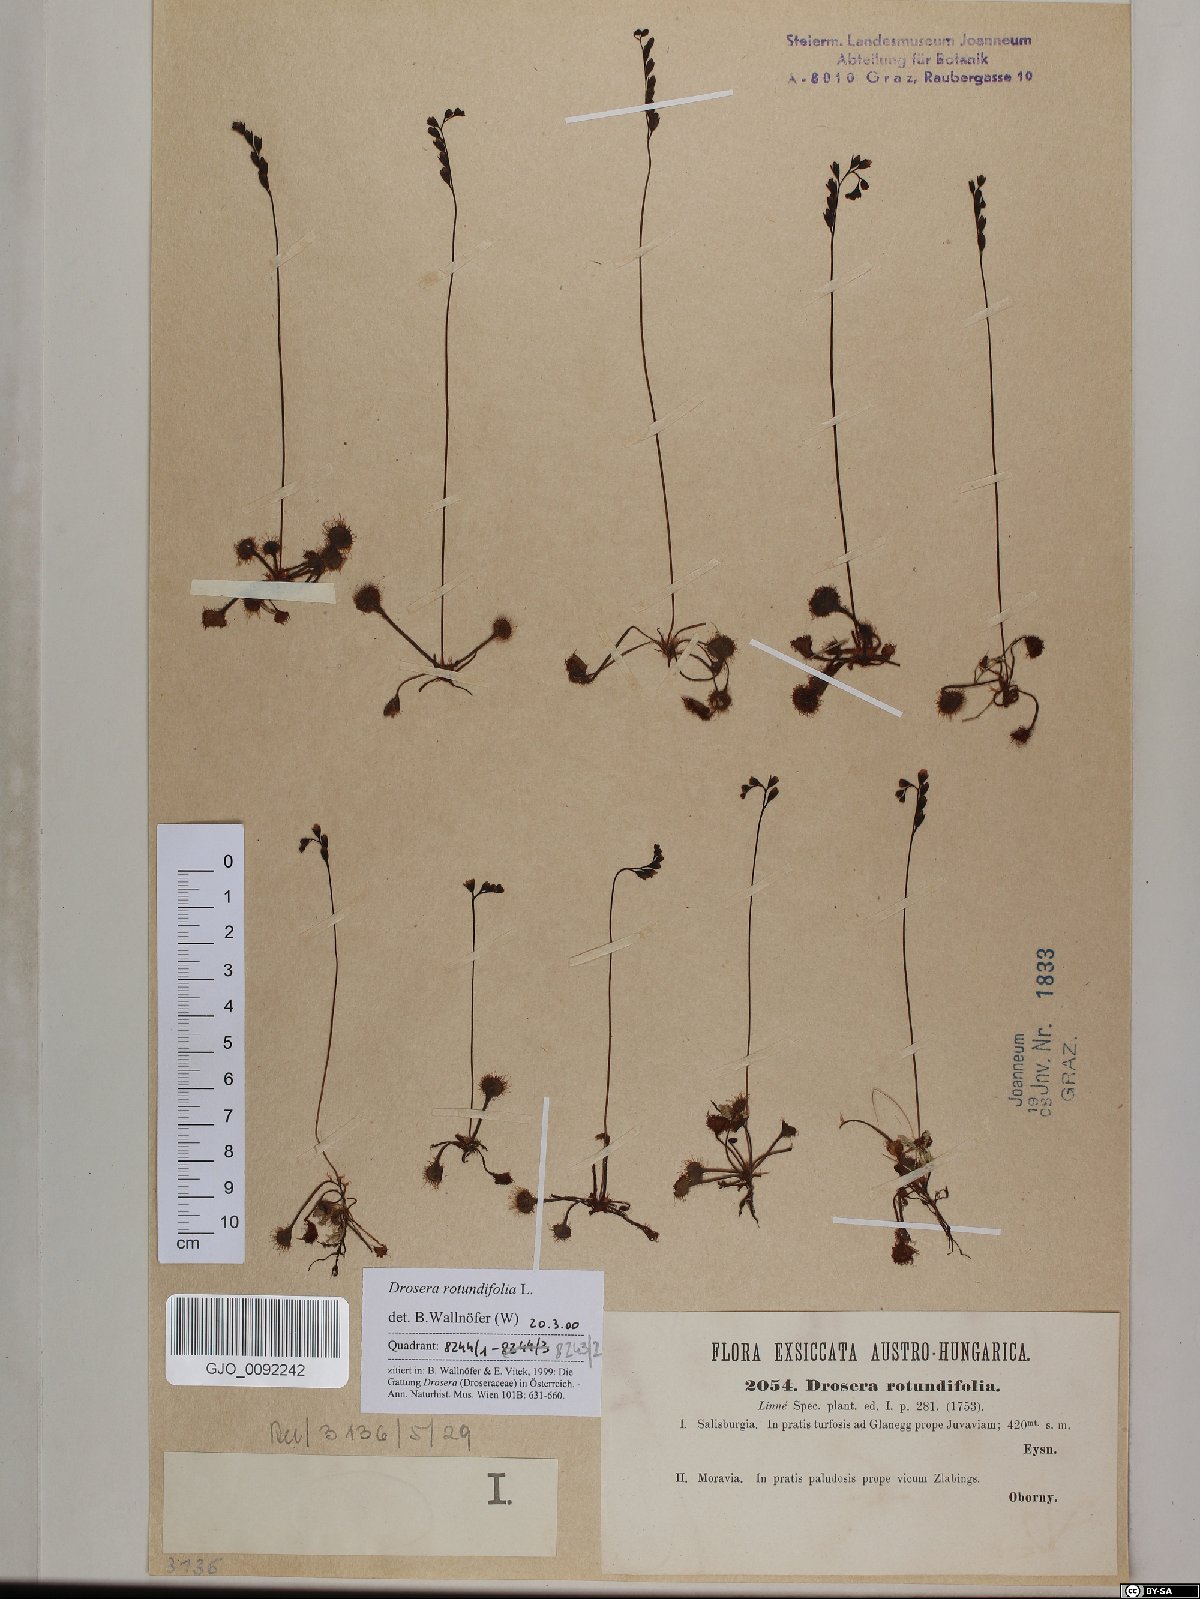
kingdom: Plantae
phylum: Tracheophyta
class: Magnoliopsida
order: Caryophyllales
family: Droseraceae
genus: Drosera
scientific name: Drosera rotundifolia
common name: Round-leaved sundew
